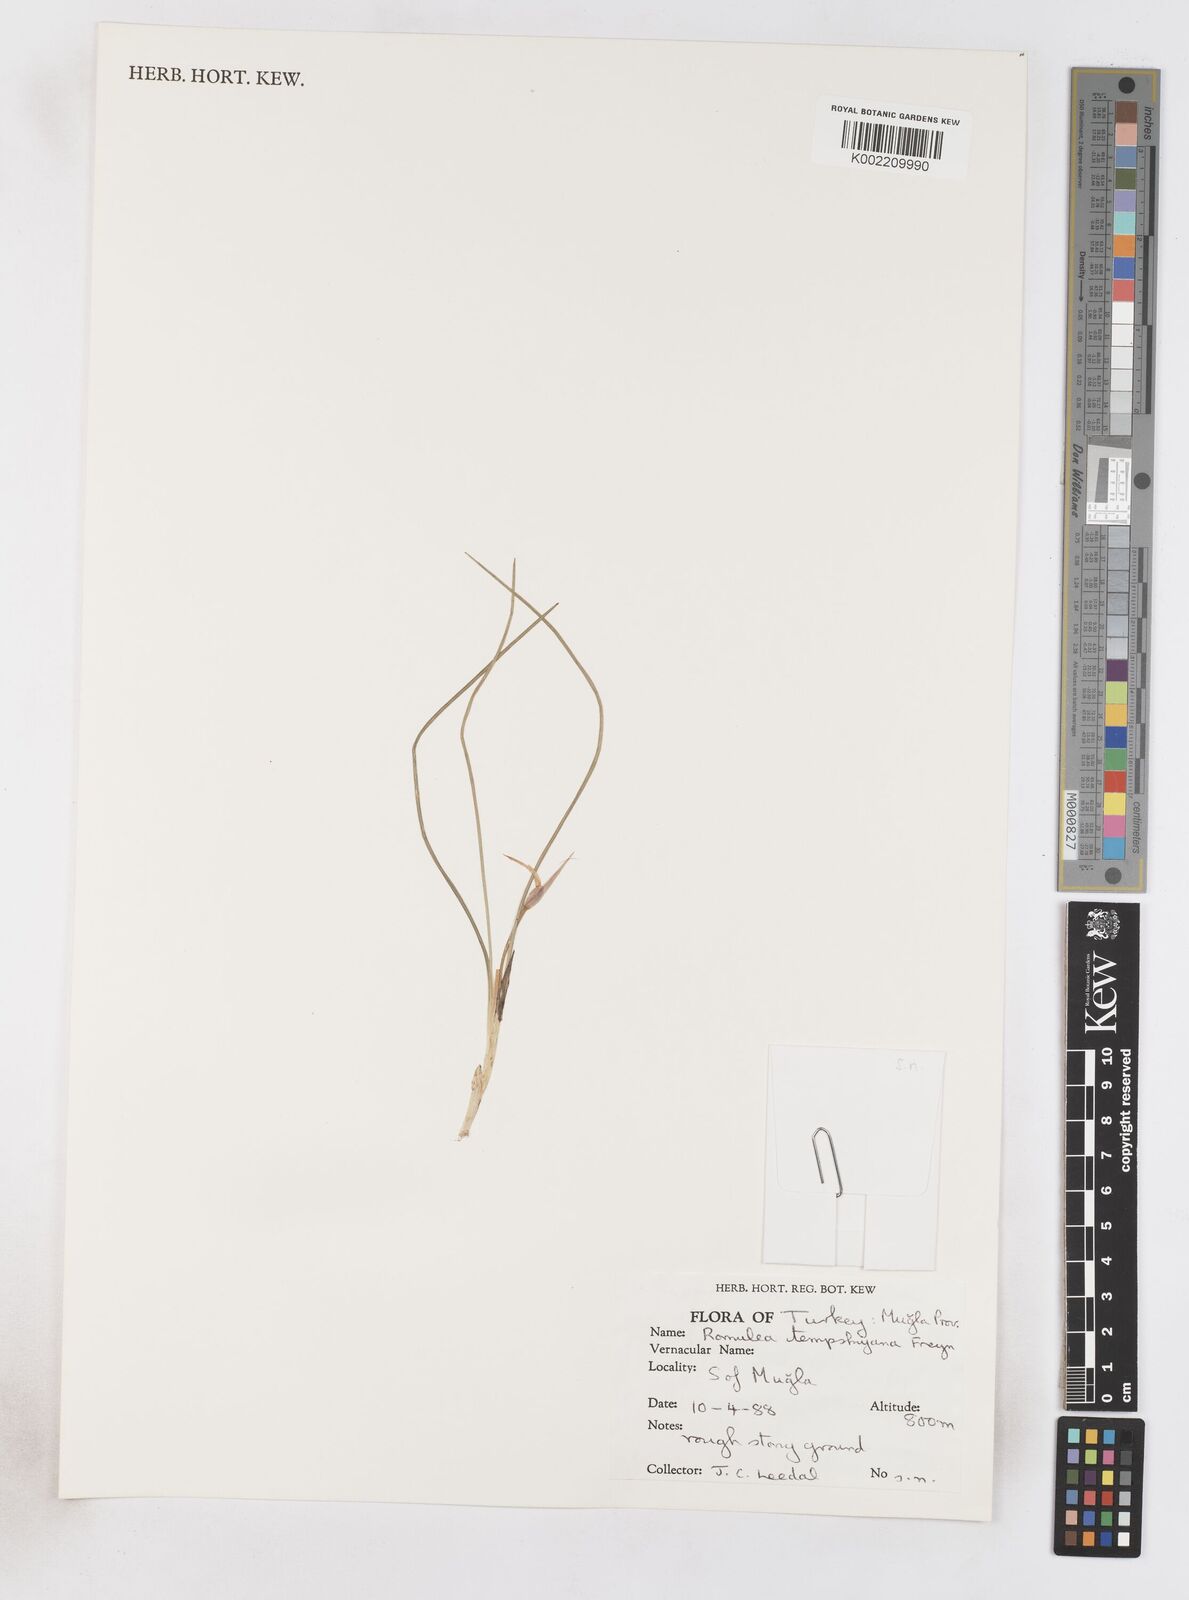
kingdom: Plantae
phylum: Tracheophyta
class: Liliopsida
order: Asparagales
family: Iridaceae
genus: Romulea
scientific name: Romulea tempskyana
